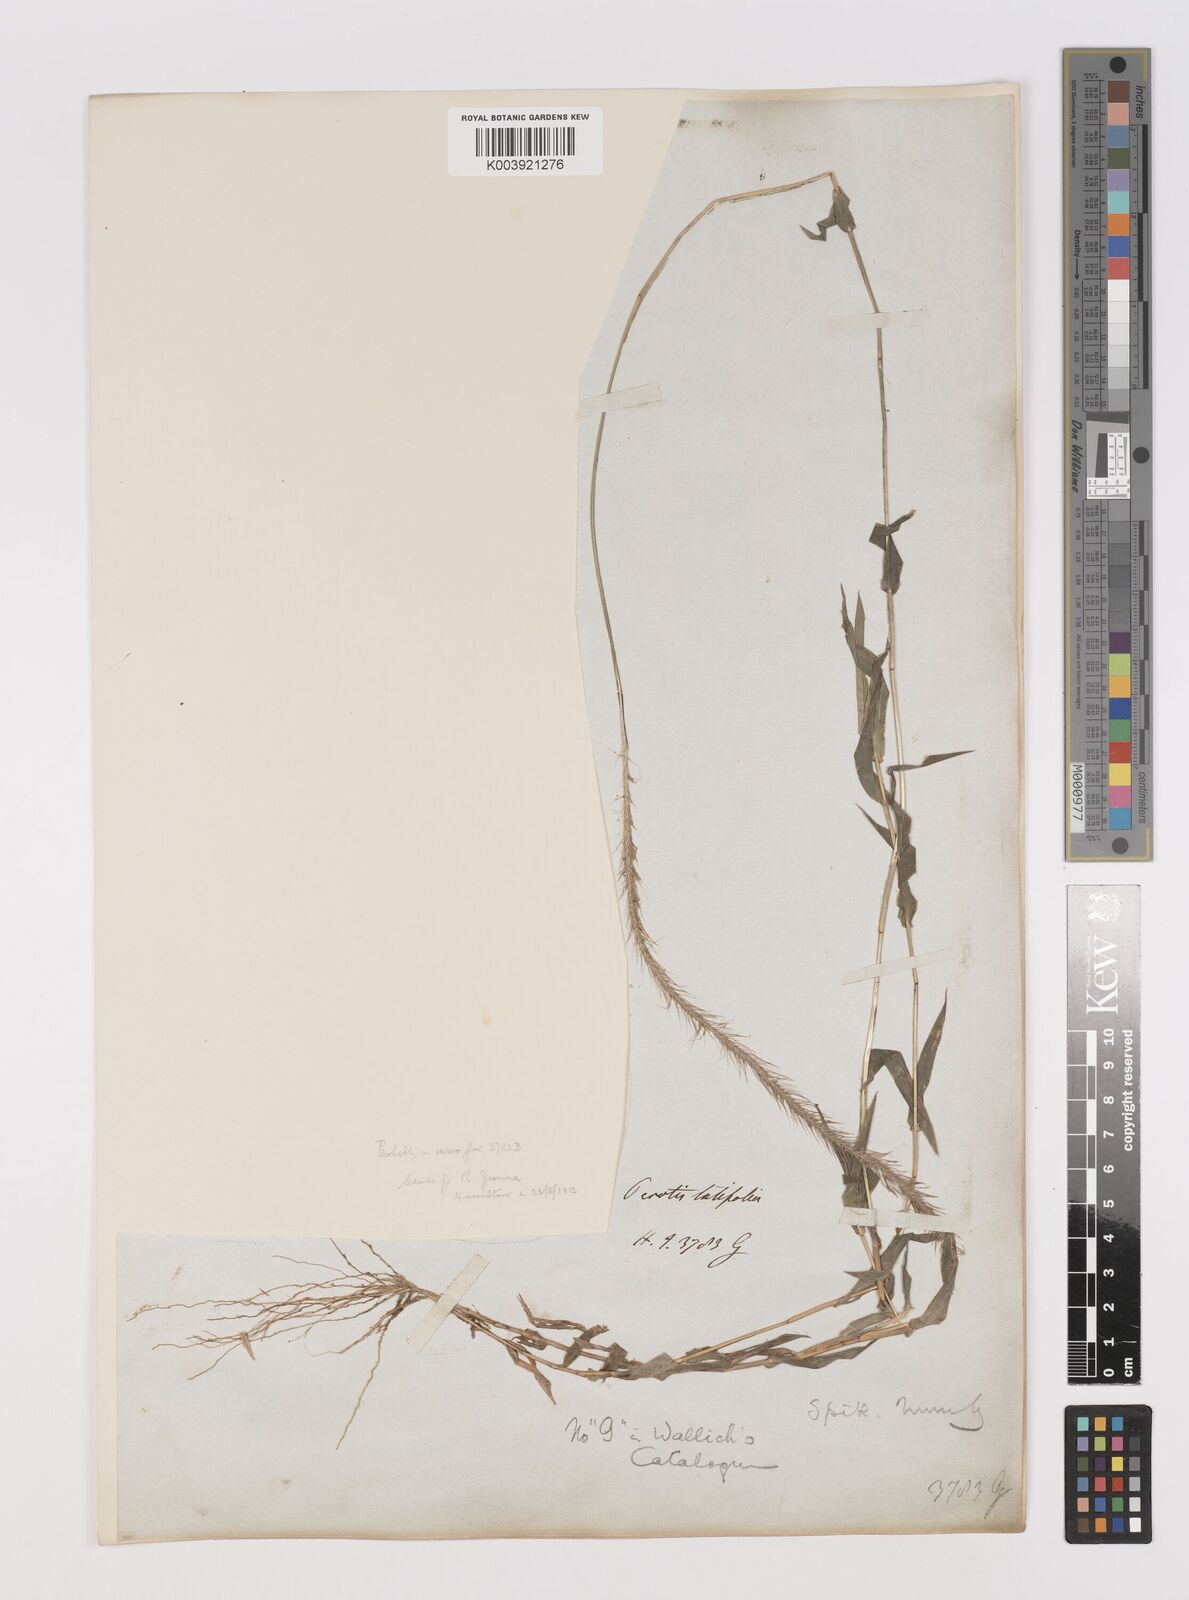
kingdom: Plantae
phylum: Tracheophyta
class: Liliopsida
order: Poales
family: Poaceae
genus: Perotis
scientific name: Perotis hordeiformis
